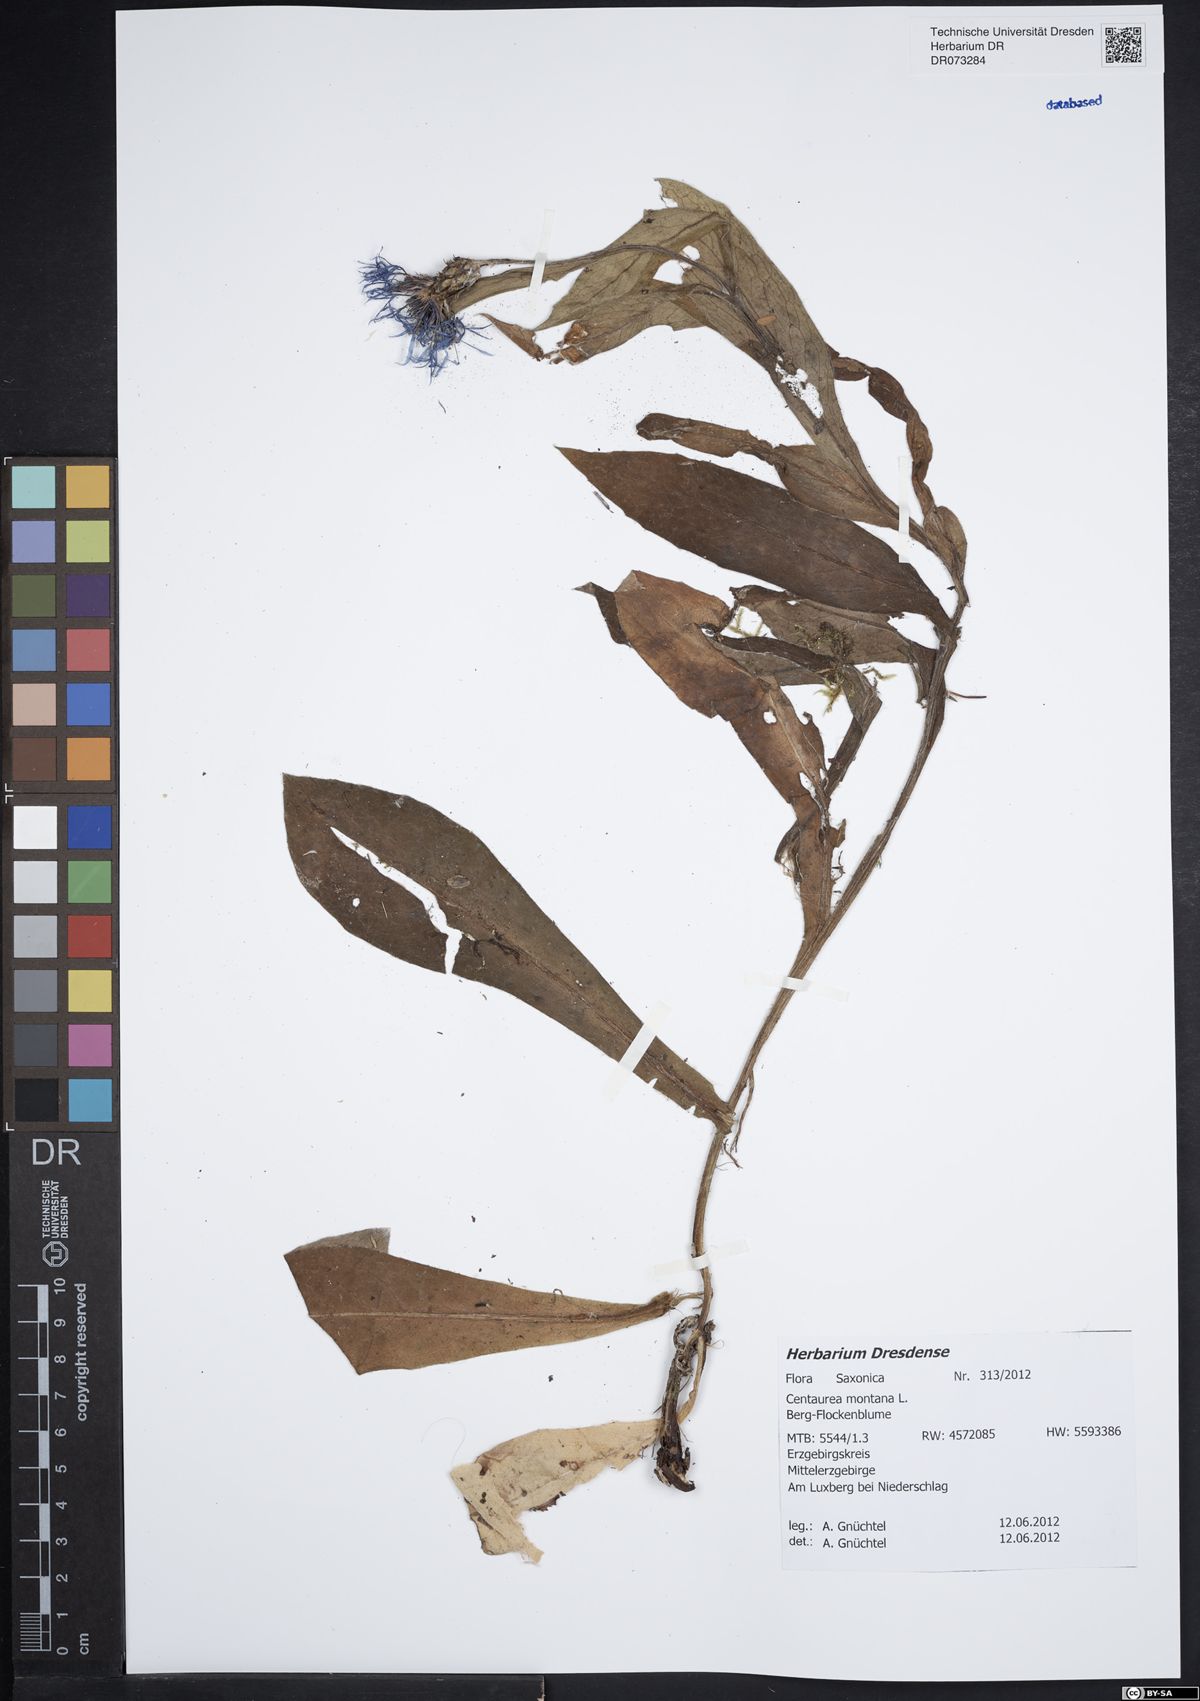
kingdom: Plantae
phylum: Tracheophyta
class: Magnoliopsida
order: Asterales
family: Asteraceae
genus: Centaurea
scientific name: Centaurea montana
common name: Perennial cornflower
